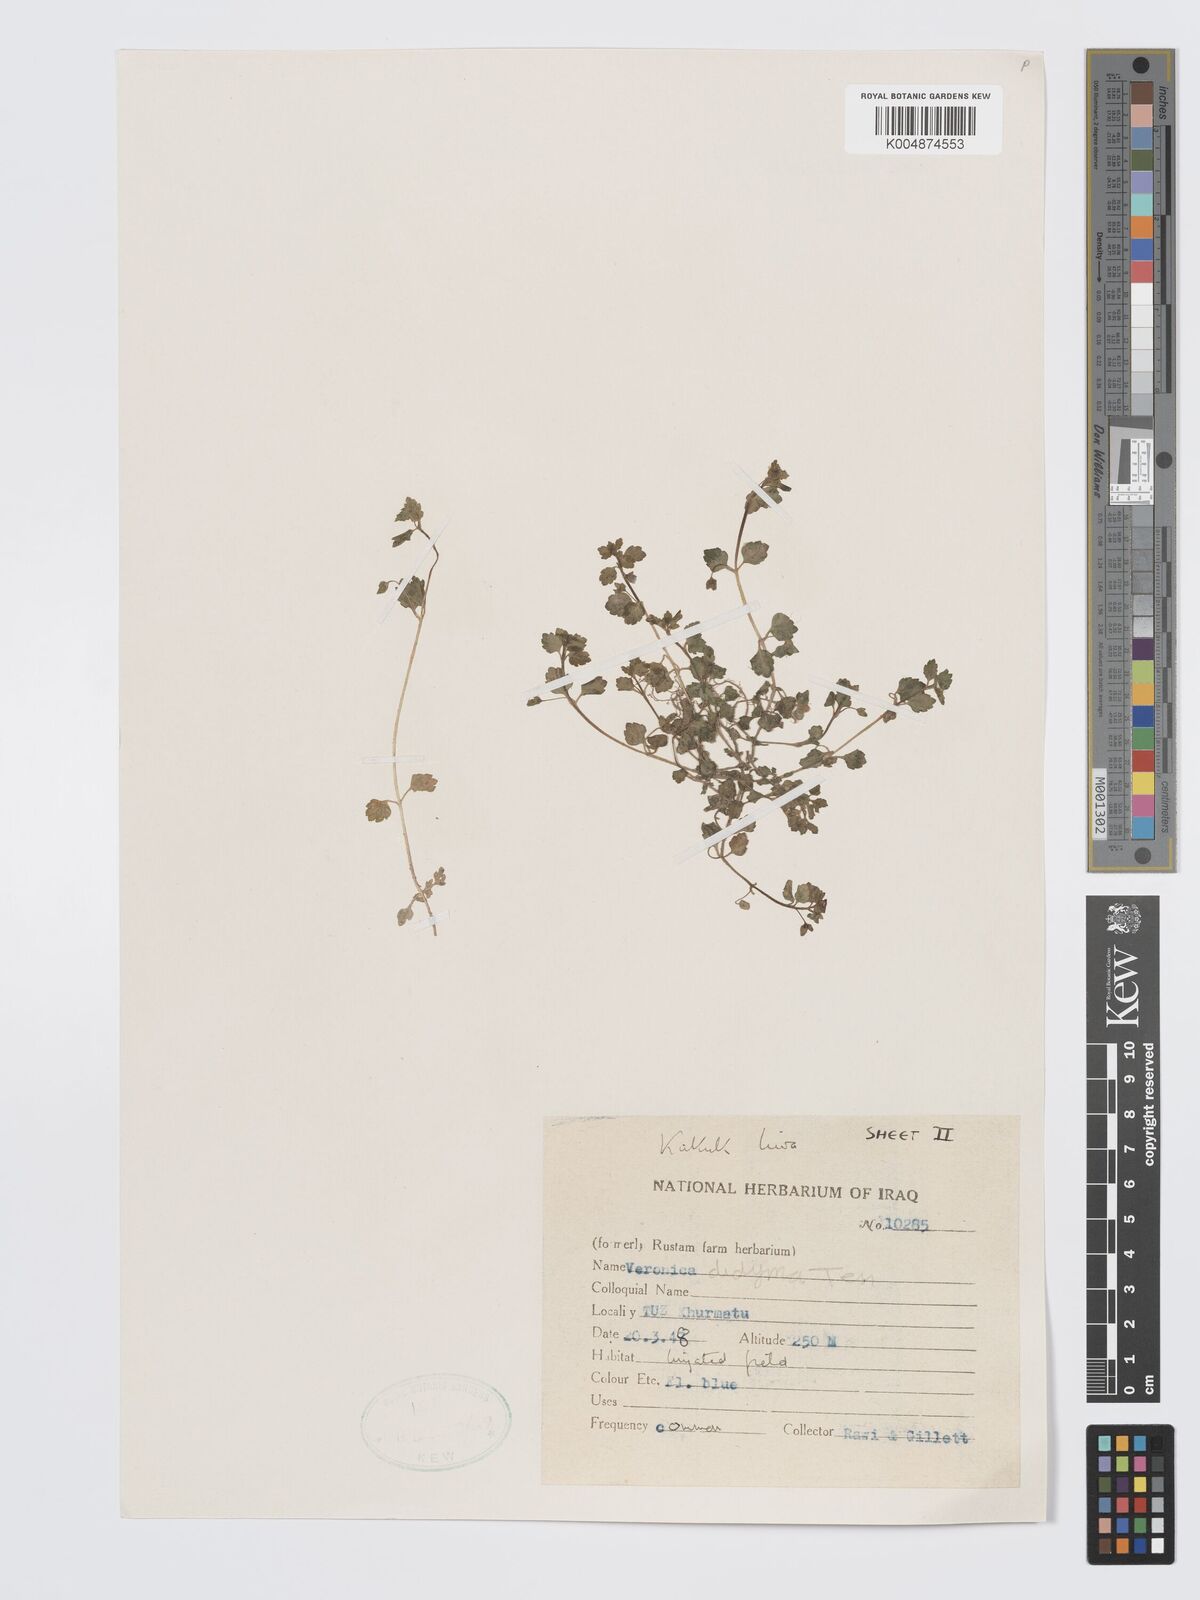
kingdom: Plantae
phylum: Tracheophyta
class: Magnoliopsida
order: Lamiales
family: Plantaginaceae
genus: Veronica
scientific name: Veronica
